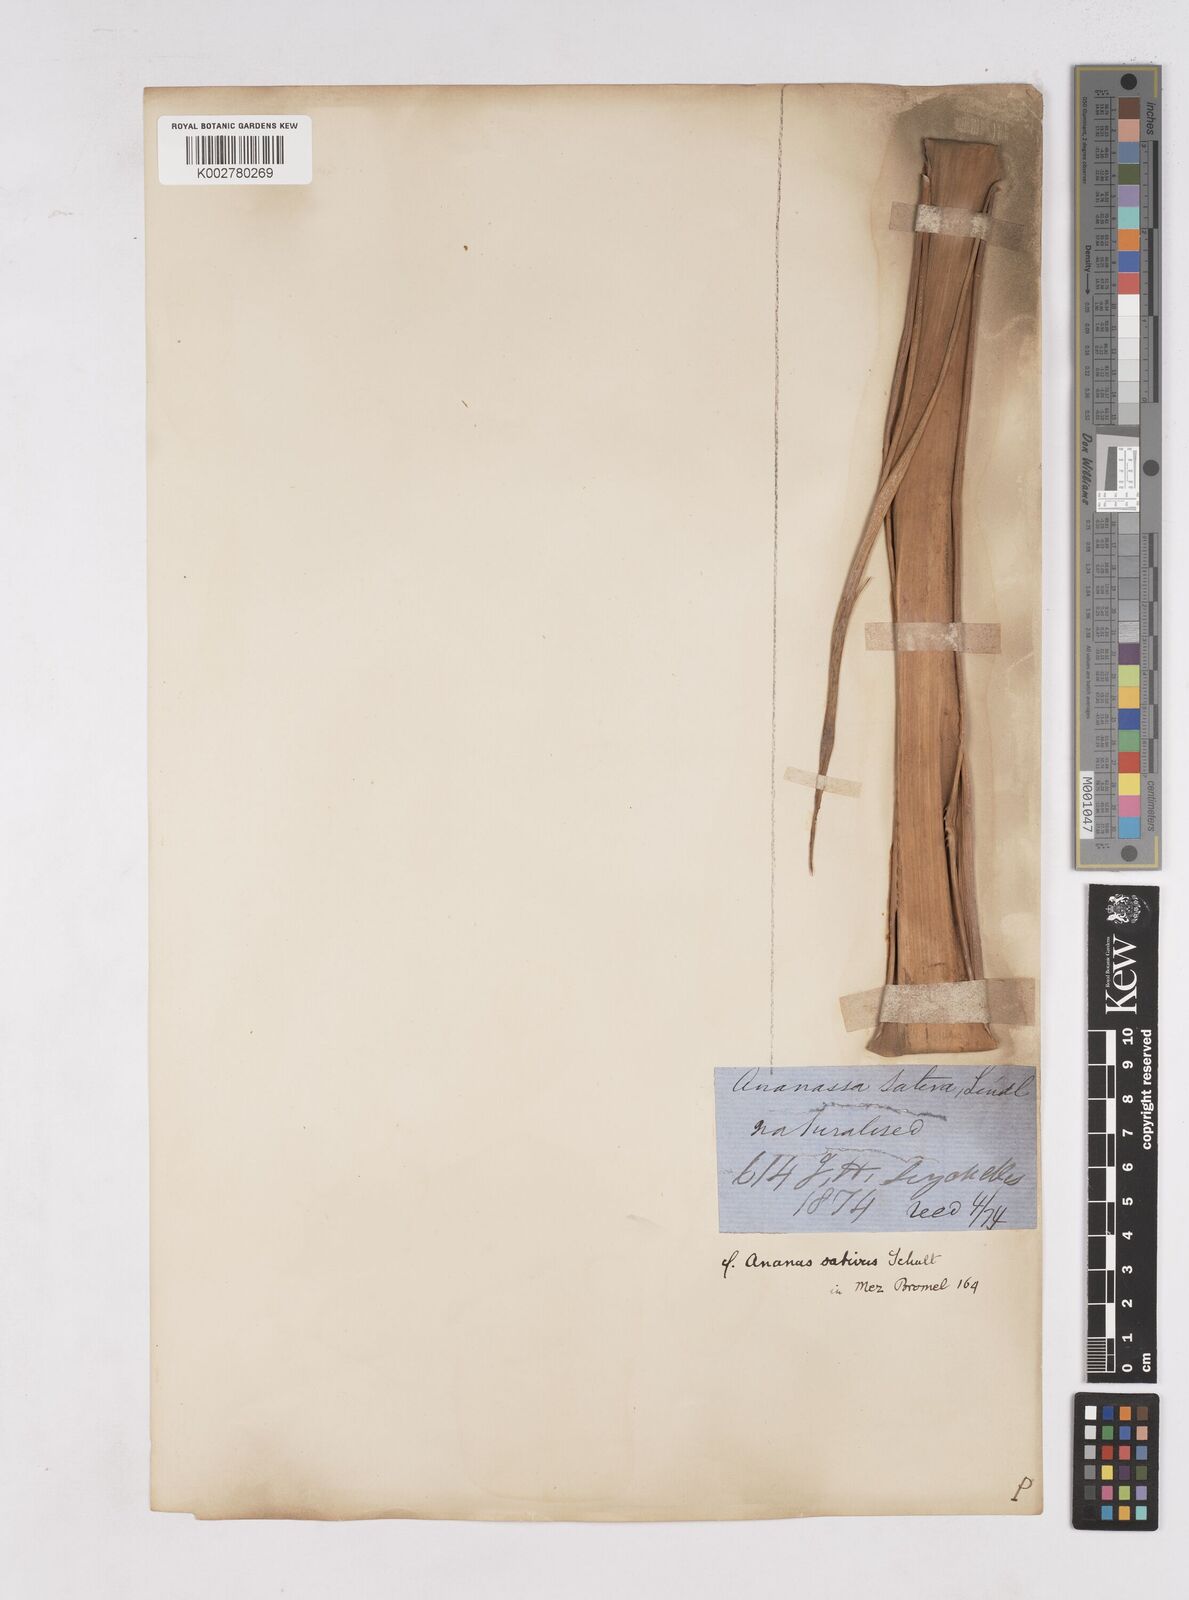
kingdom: Plantae
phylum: Tracheophyta
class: Liliopsida
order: Poales
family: Bromeliaceae
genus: Ananas
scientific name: Ananas comosus
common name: Pineapple
